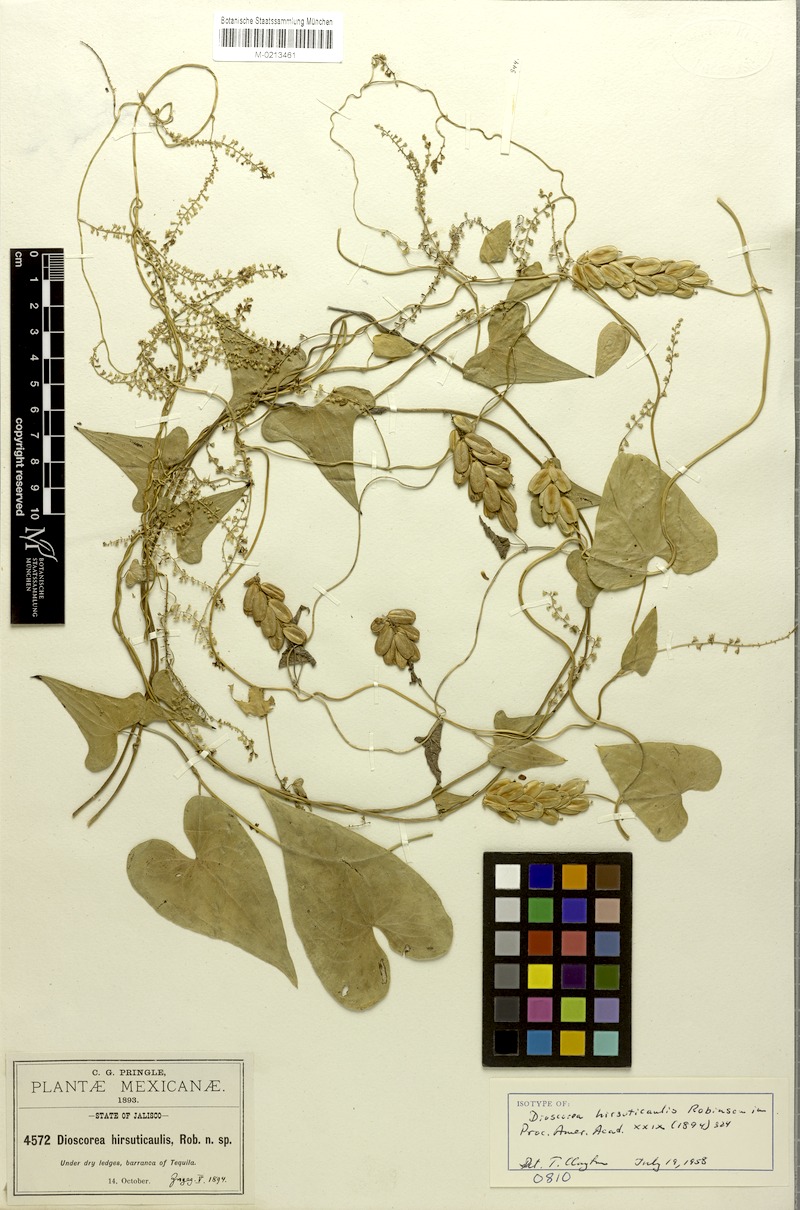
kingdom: Plantae
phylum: Tracheophyta
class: Liliopsida
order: Dioscoreales
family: Dioscoreaceae
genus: Dioscorea
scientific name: Dioscorea jaliscana
